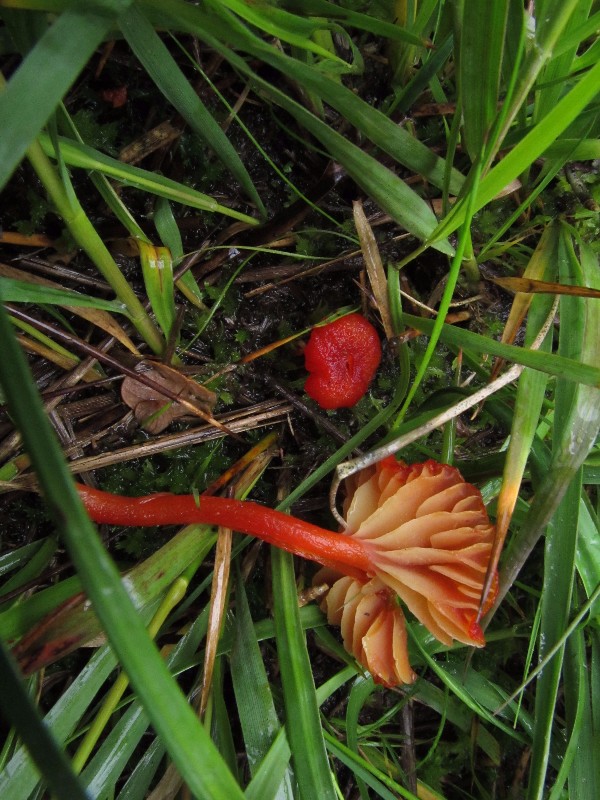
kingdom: Fungi
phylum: Basidiomycota
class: Agaricomycetes
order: Agaricales
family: Hygrophoraceae
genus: Hygrocybe
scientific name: Hygrocybe helobia
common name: hvidløgs-vokshat
